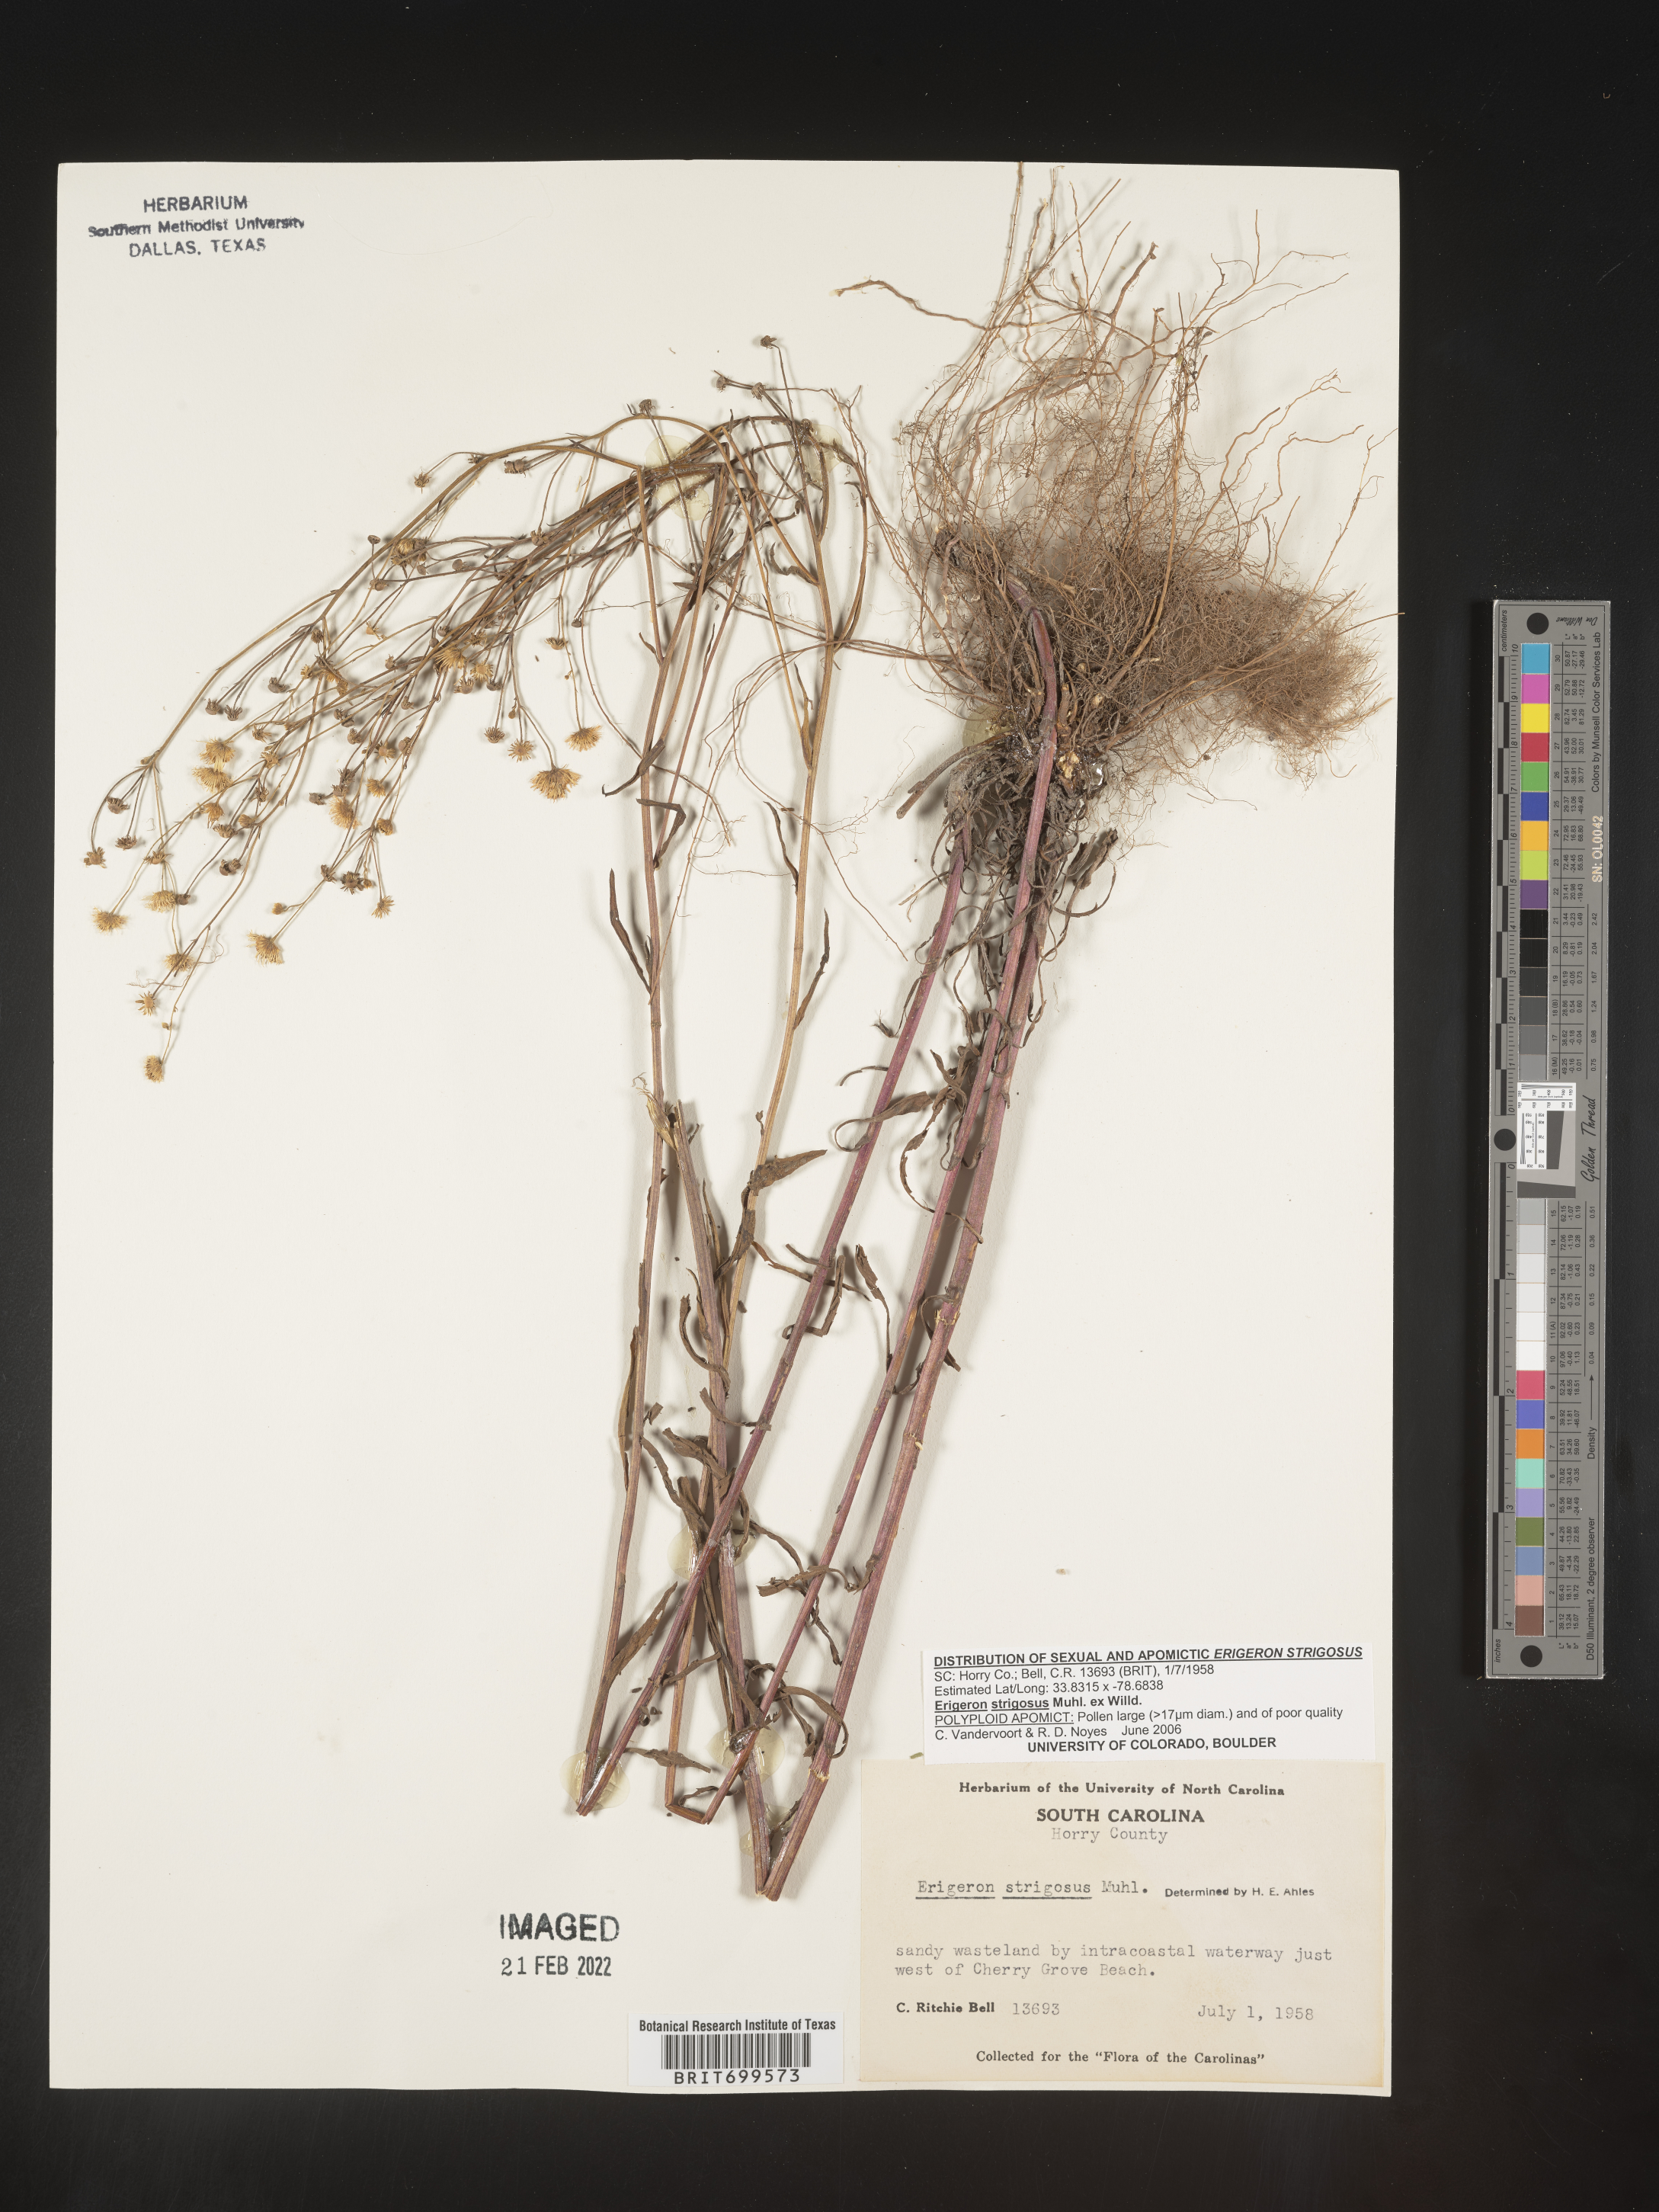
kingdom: Plantae
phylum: Tracheophyta
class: Magnoliopsida
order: Asterales
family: Asteraceae
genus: Erigeron
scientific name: Erigeron strigosus
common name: Common eastern fleabane
